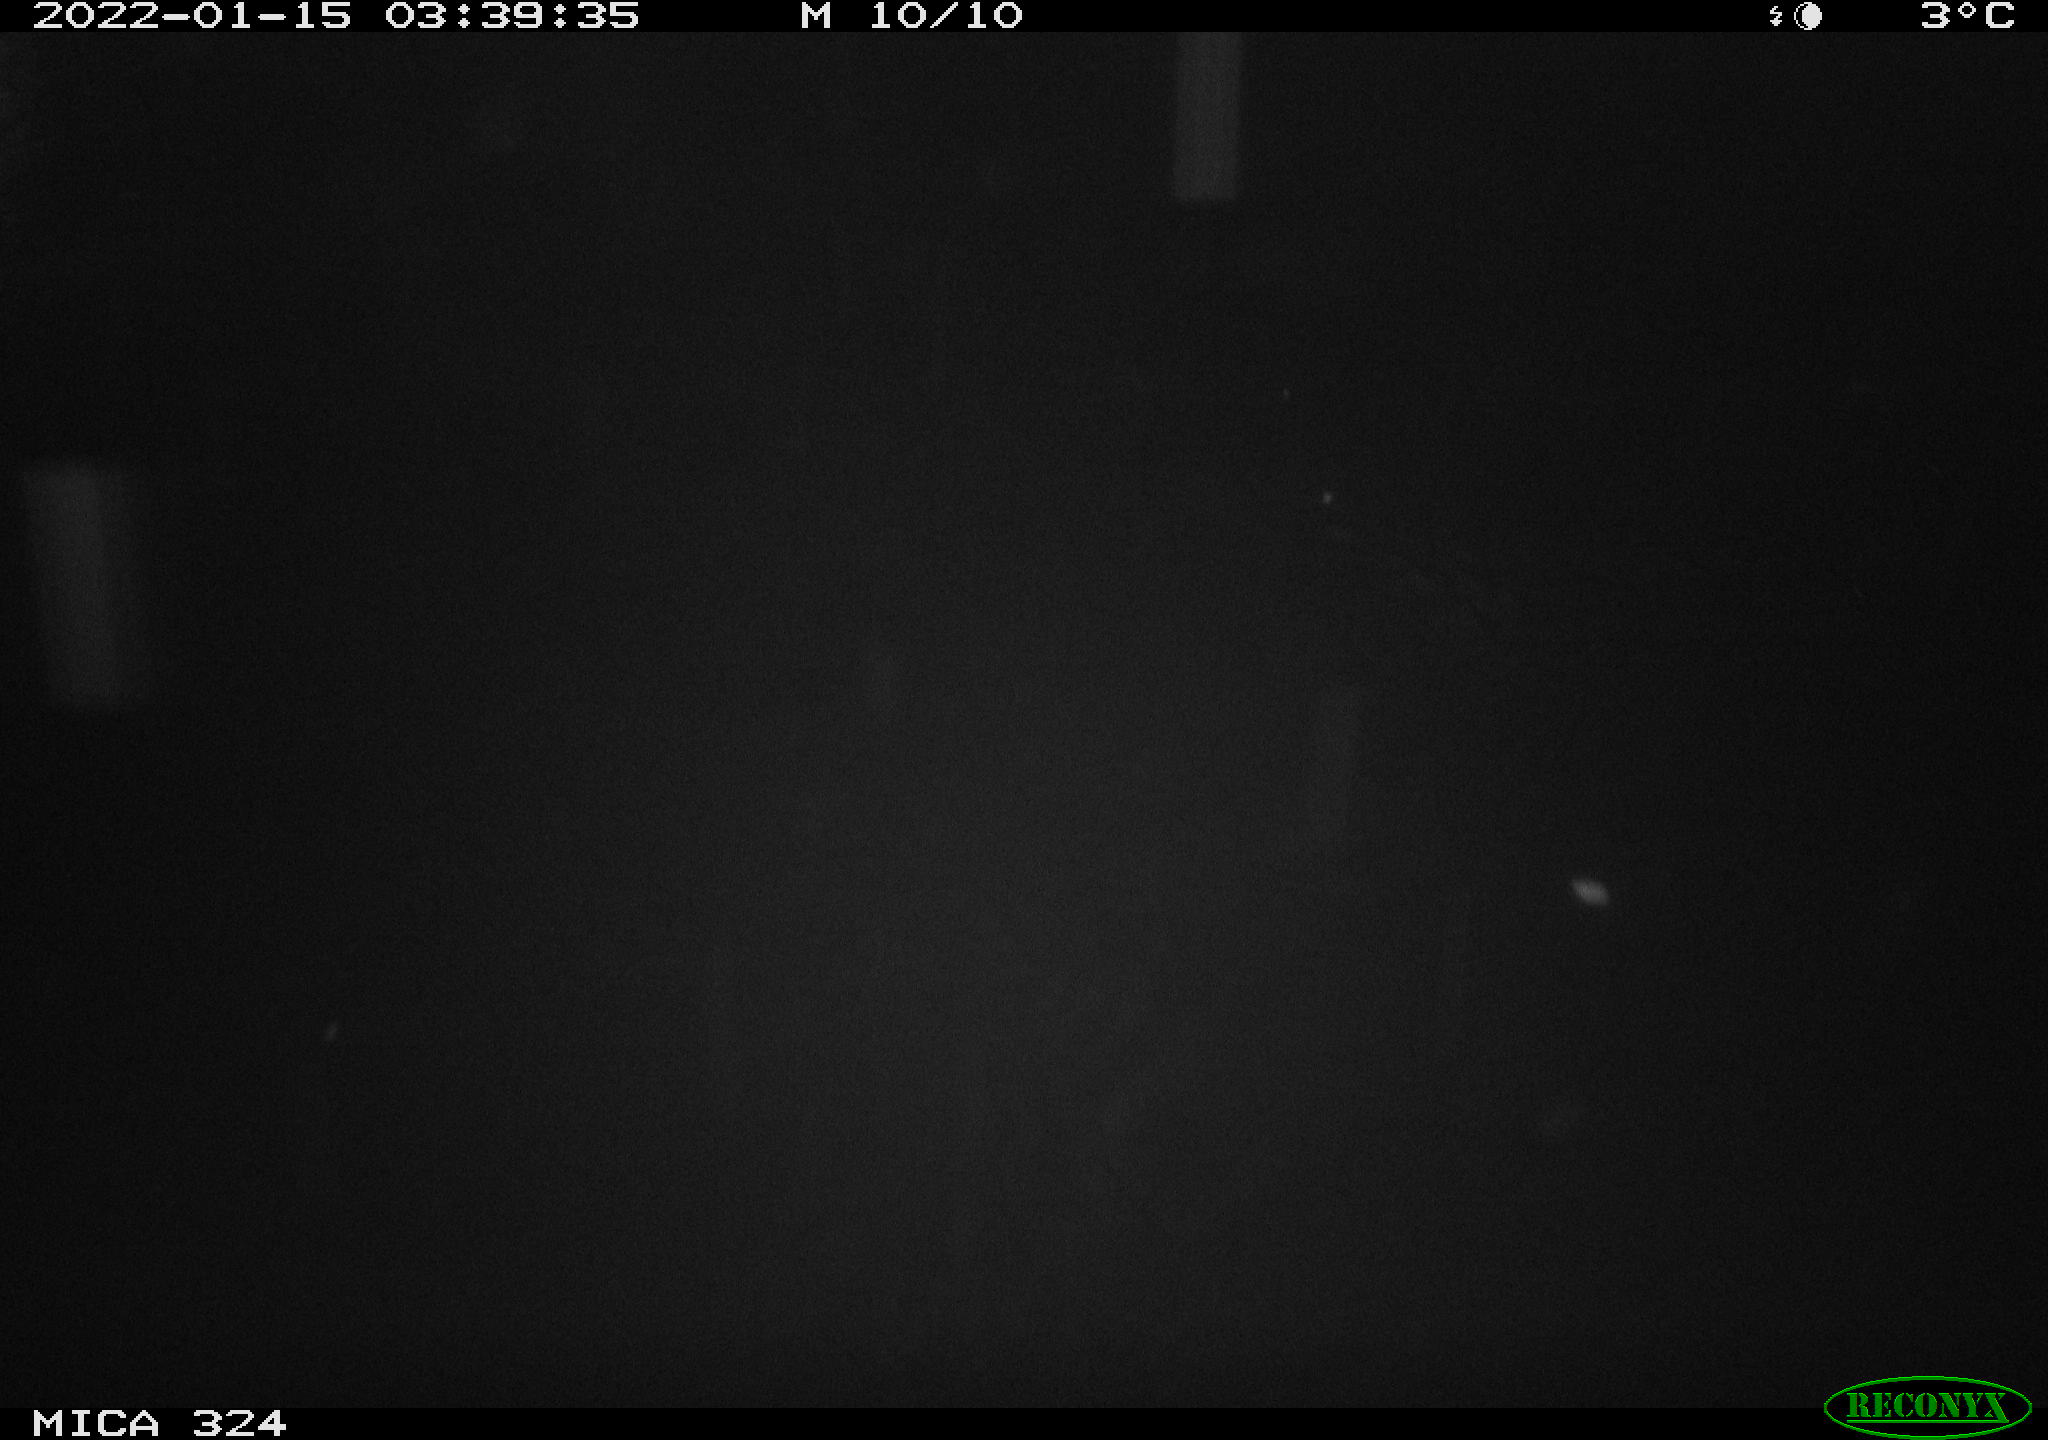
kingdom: Animalia
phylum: Chordata
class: Mammalia
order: Rodentia
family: Cricetidae
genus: Ondatra
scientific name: Ondatra zibethicus
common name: Muskrat
